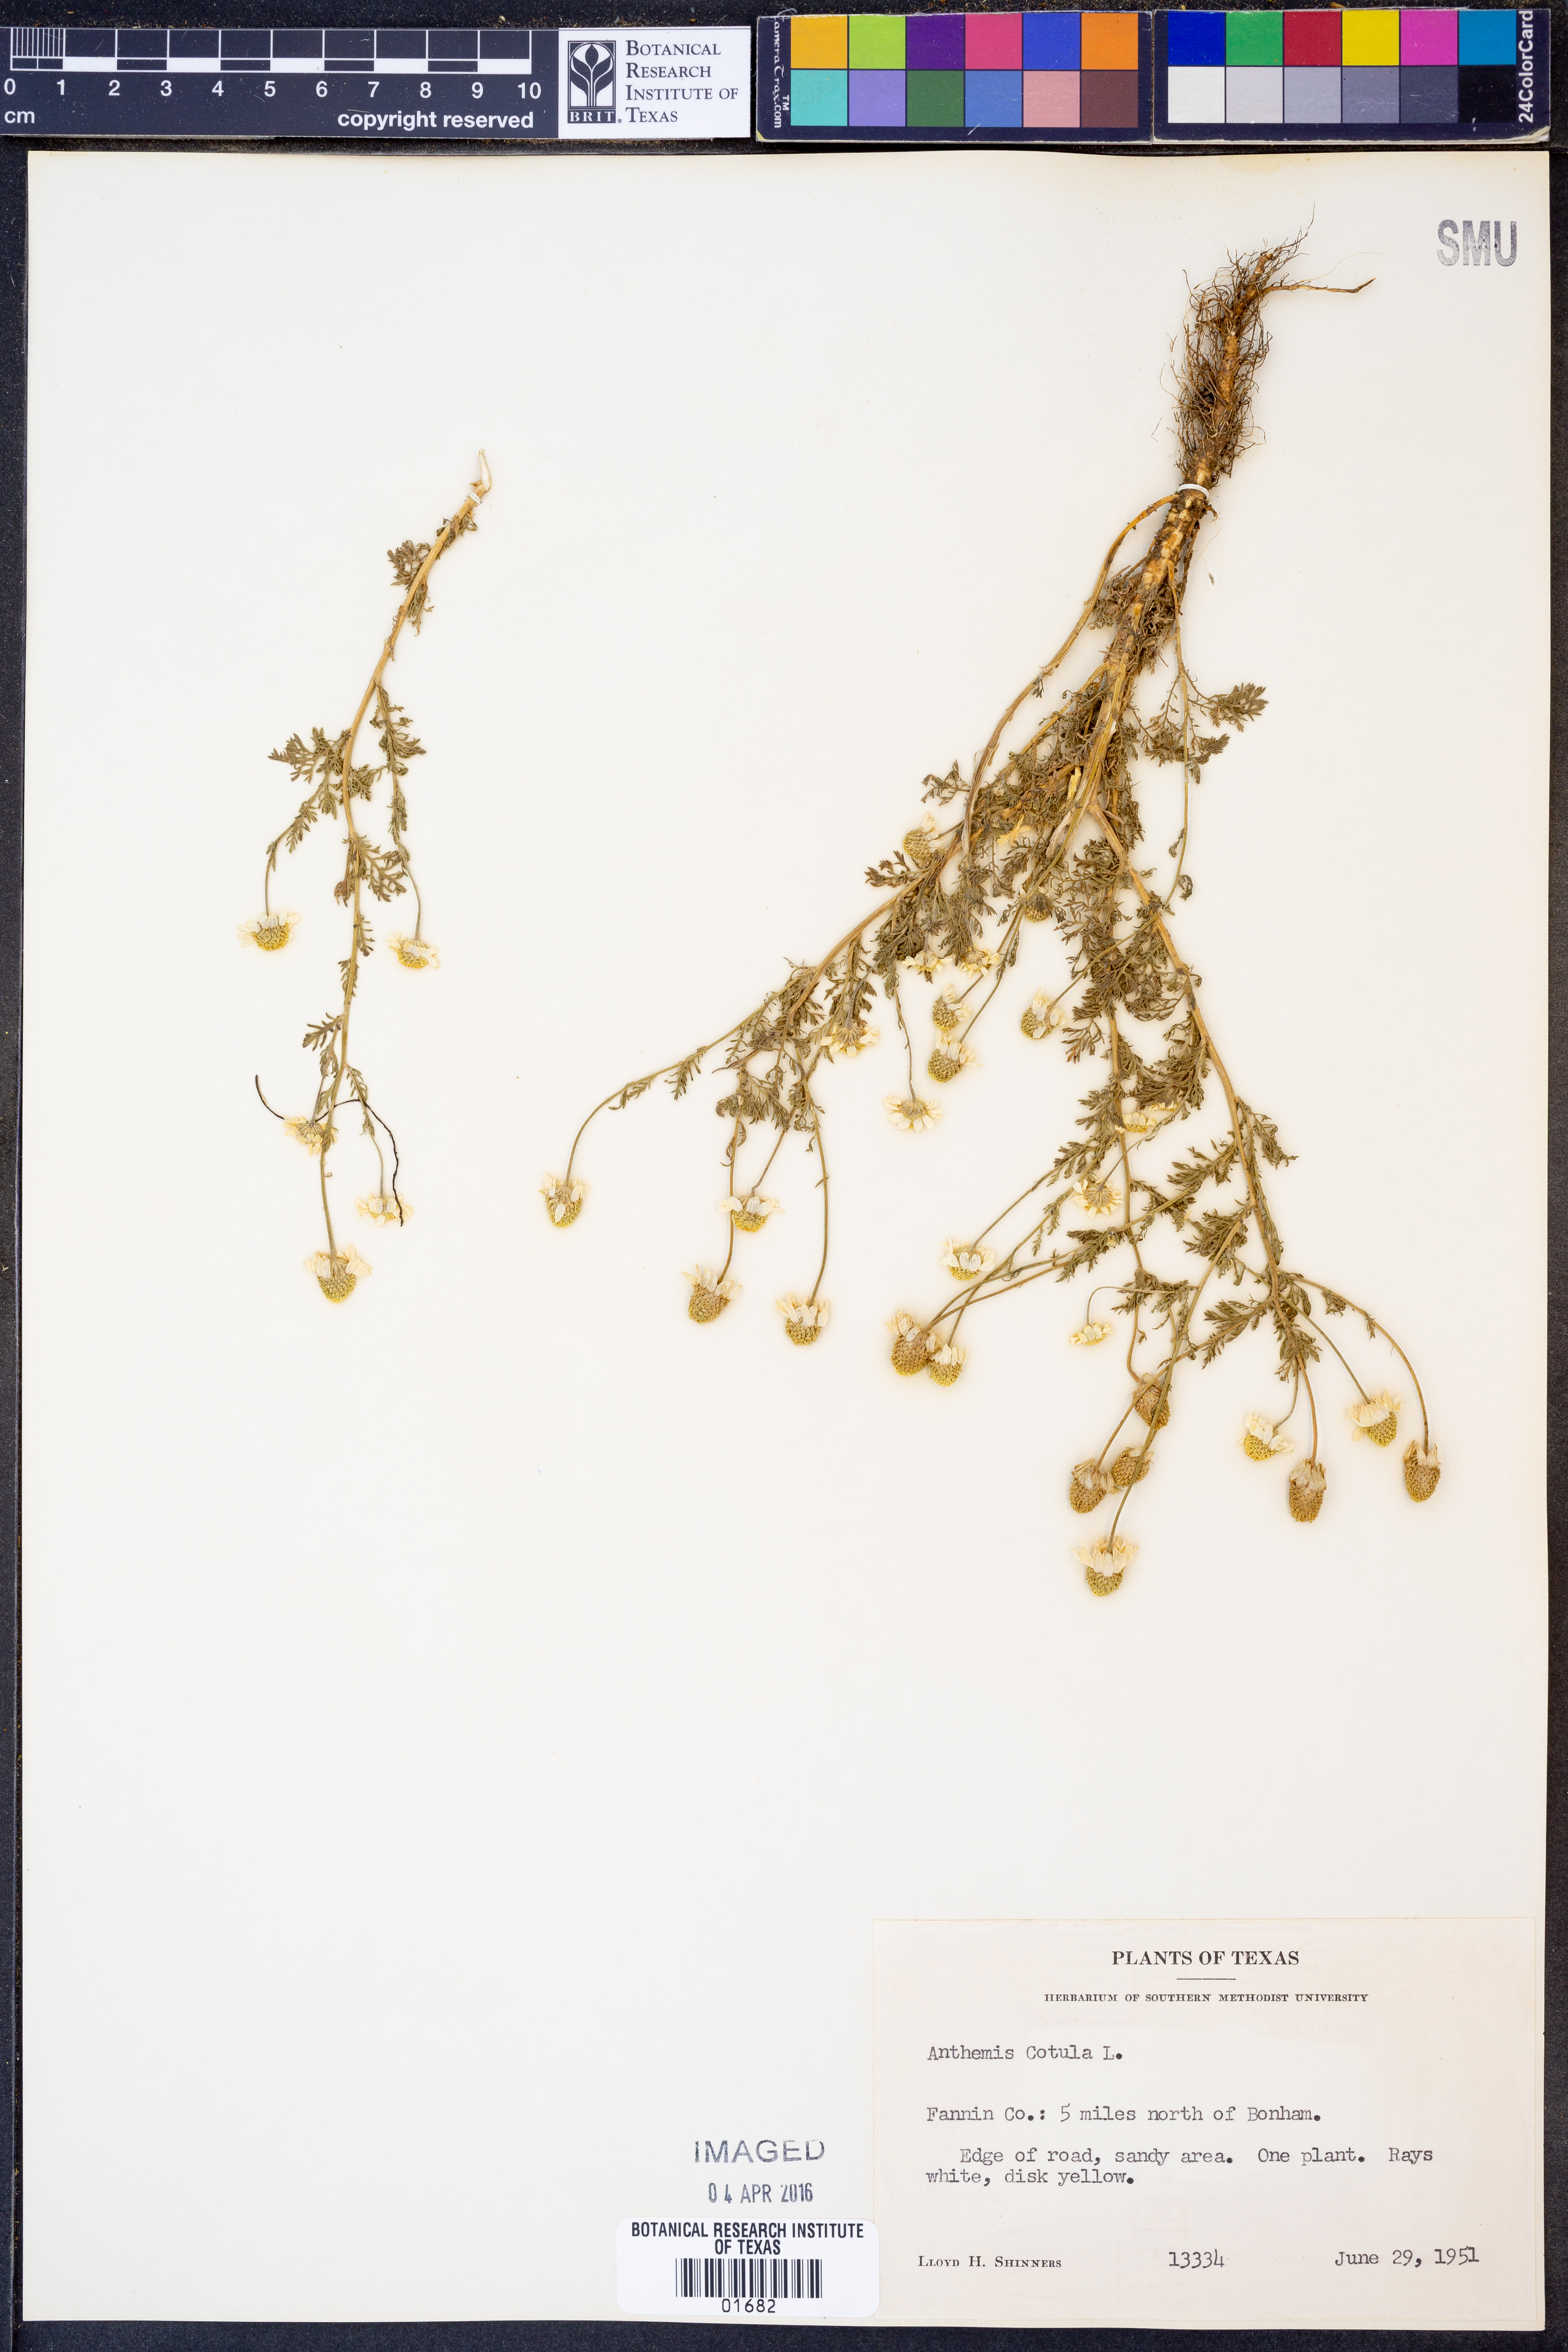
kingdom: Plantae
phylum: Tracheophyta
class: Magnoliopsida
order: Asterales
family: Asteraceae
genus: Anthemis
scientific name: Anthemis cotula
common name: Stinking chamomile
